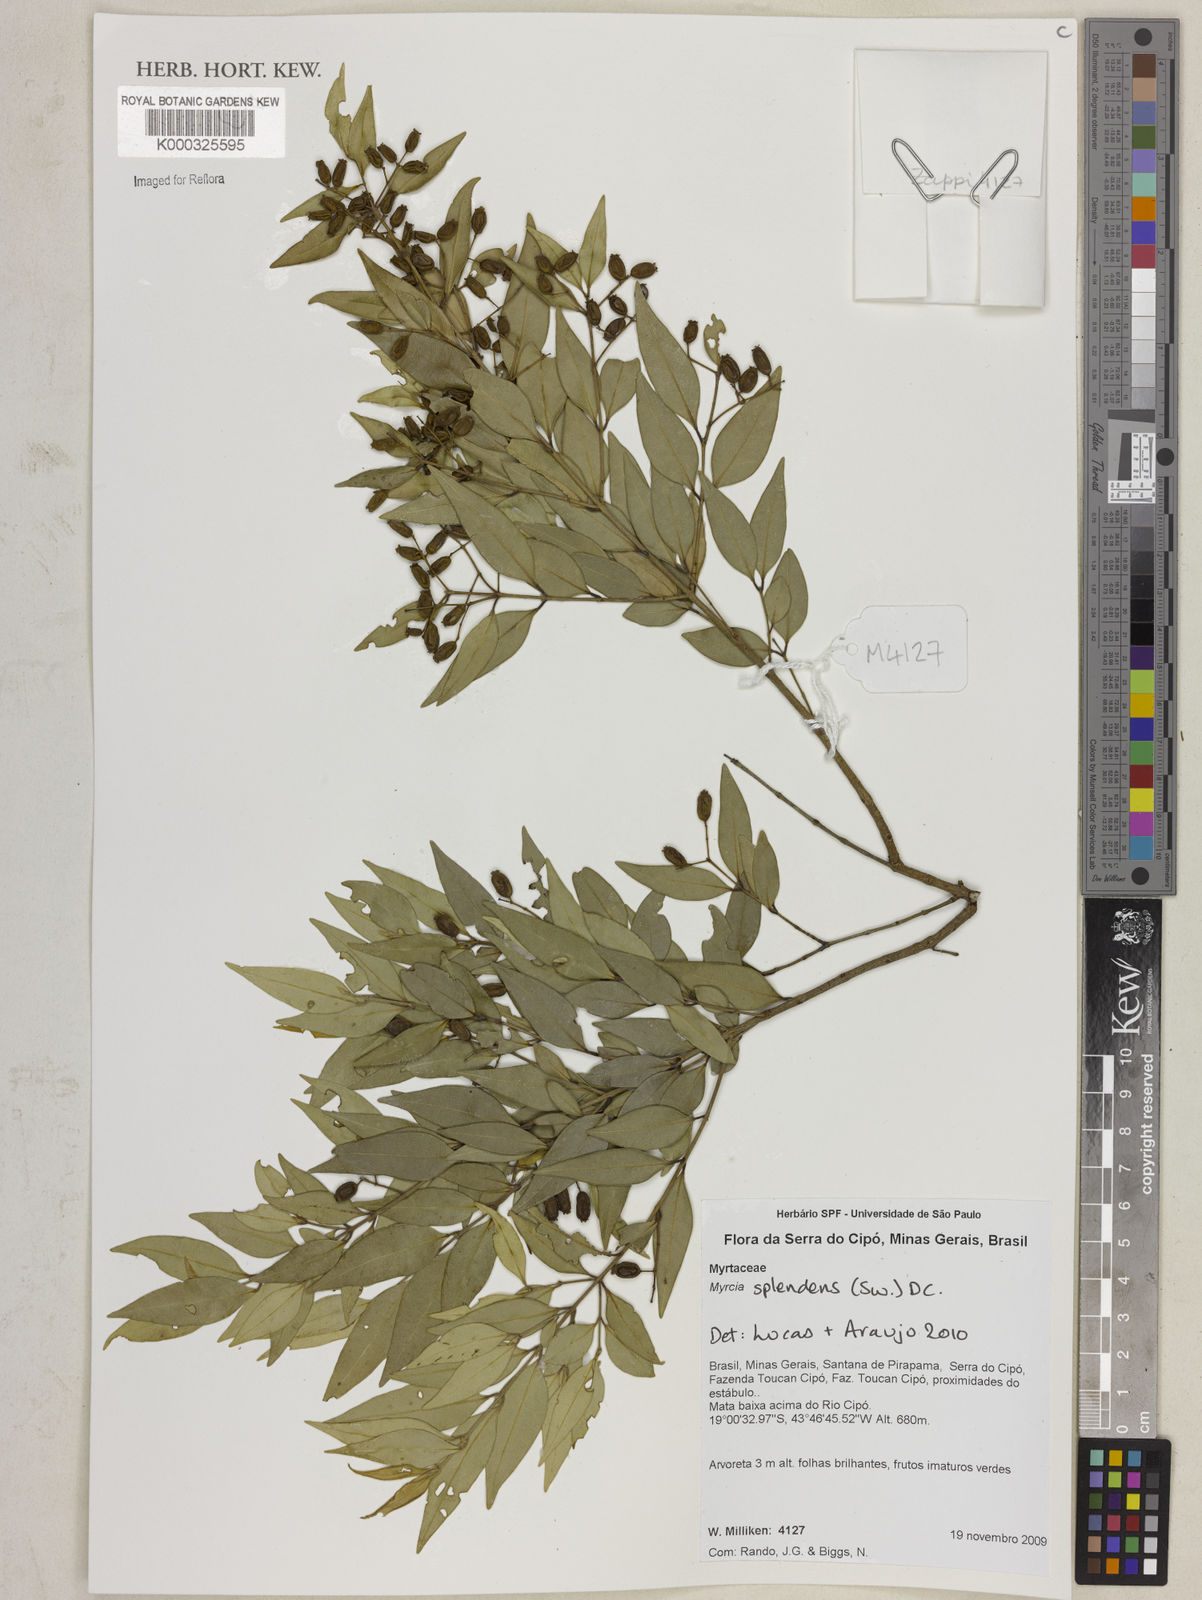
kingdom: Plantae
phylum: Tracheophyta
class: Magnoliopsida
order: Myrtales
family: Myrtaceae
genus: Myrcia
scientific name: Myrcia splendens
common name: Surinam cherry
